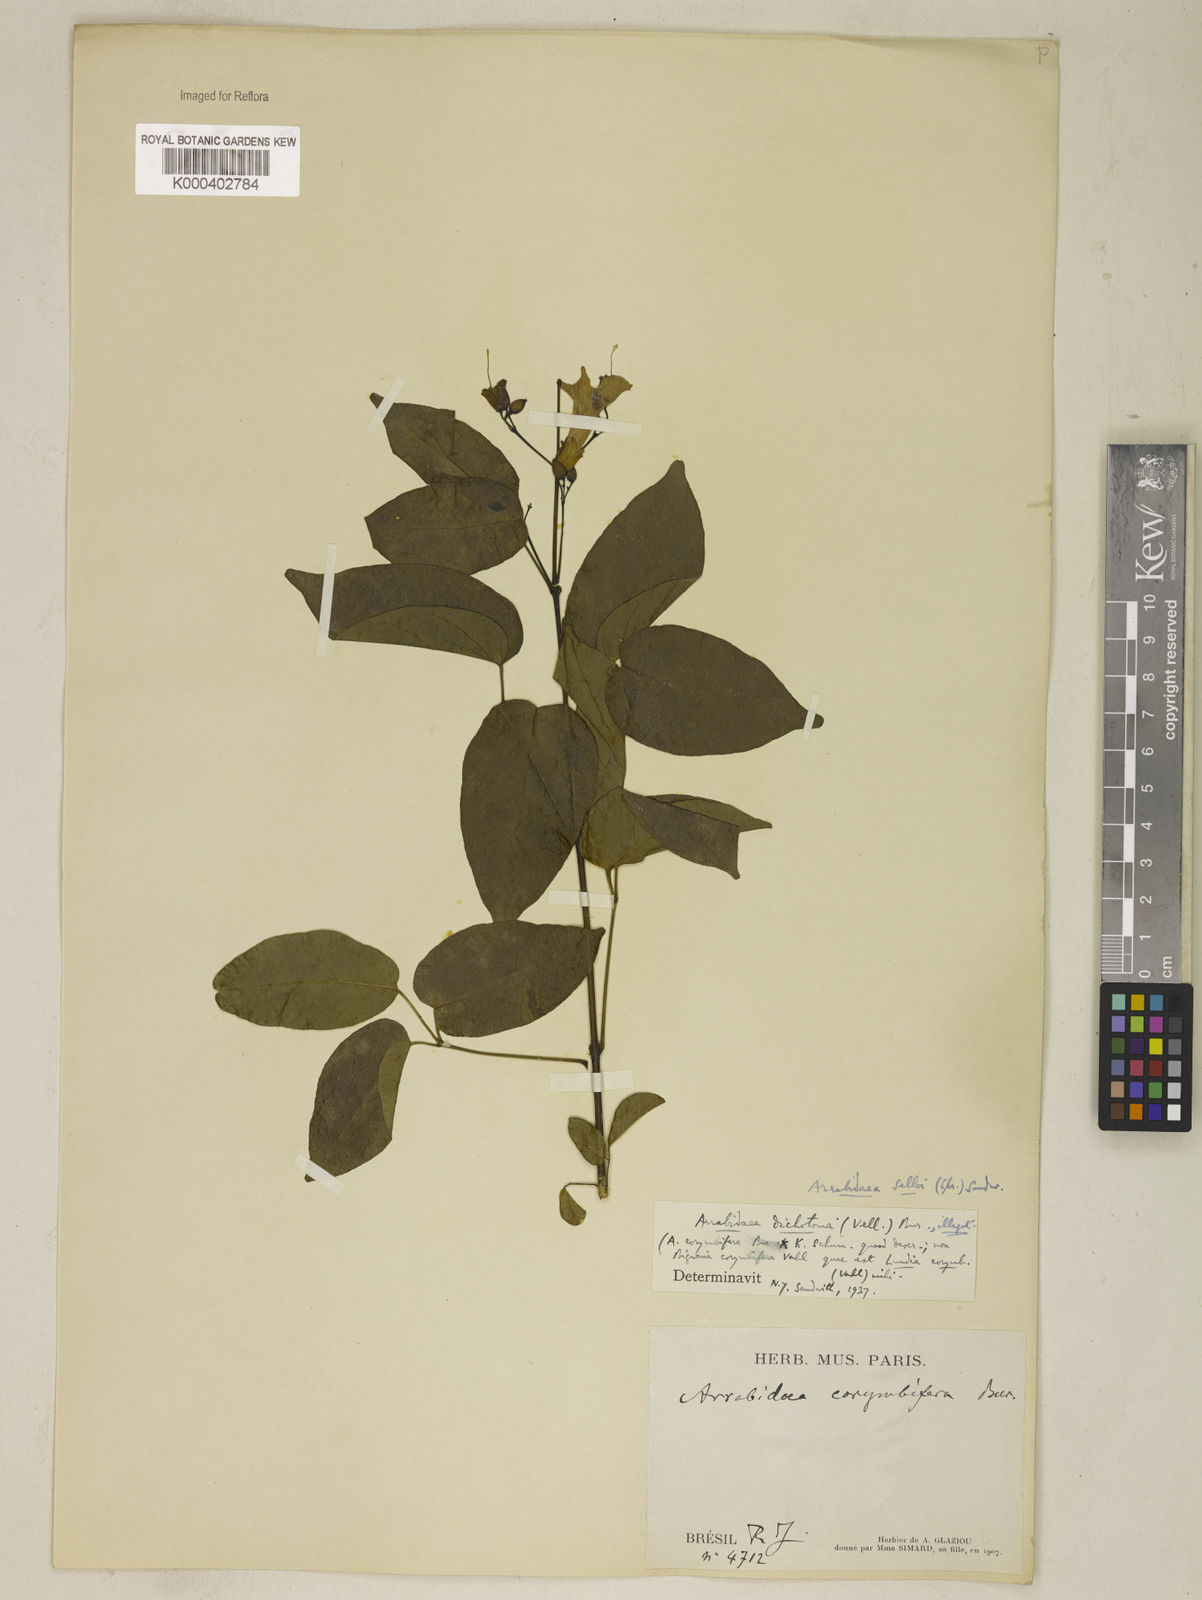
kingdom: Plantae
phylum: Tracheophyta
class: Magnoliopsida
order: Lamiales
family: Bignoniaceae
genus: Tanaecium
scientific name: Tanaecium selloi
